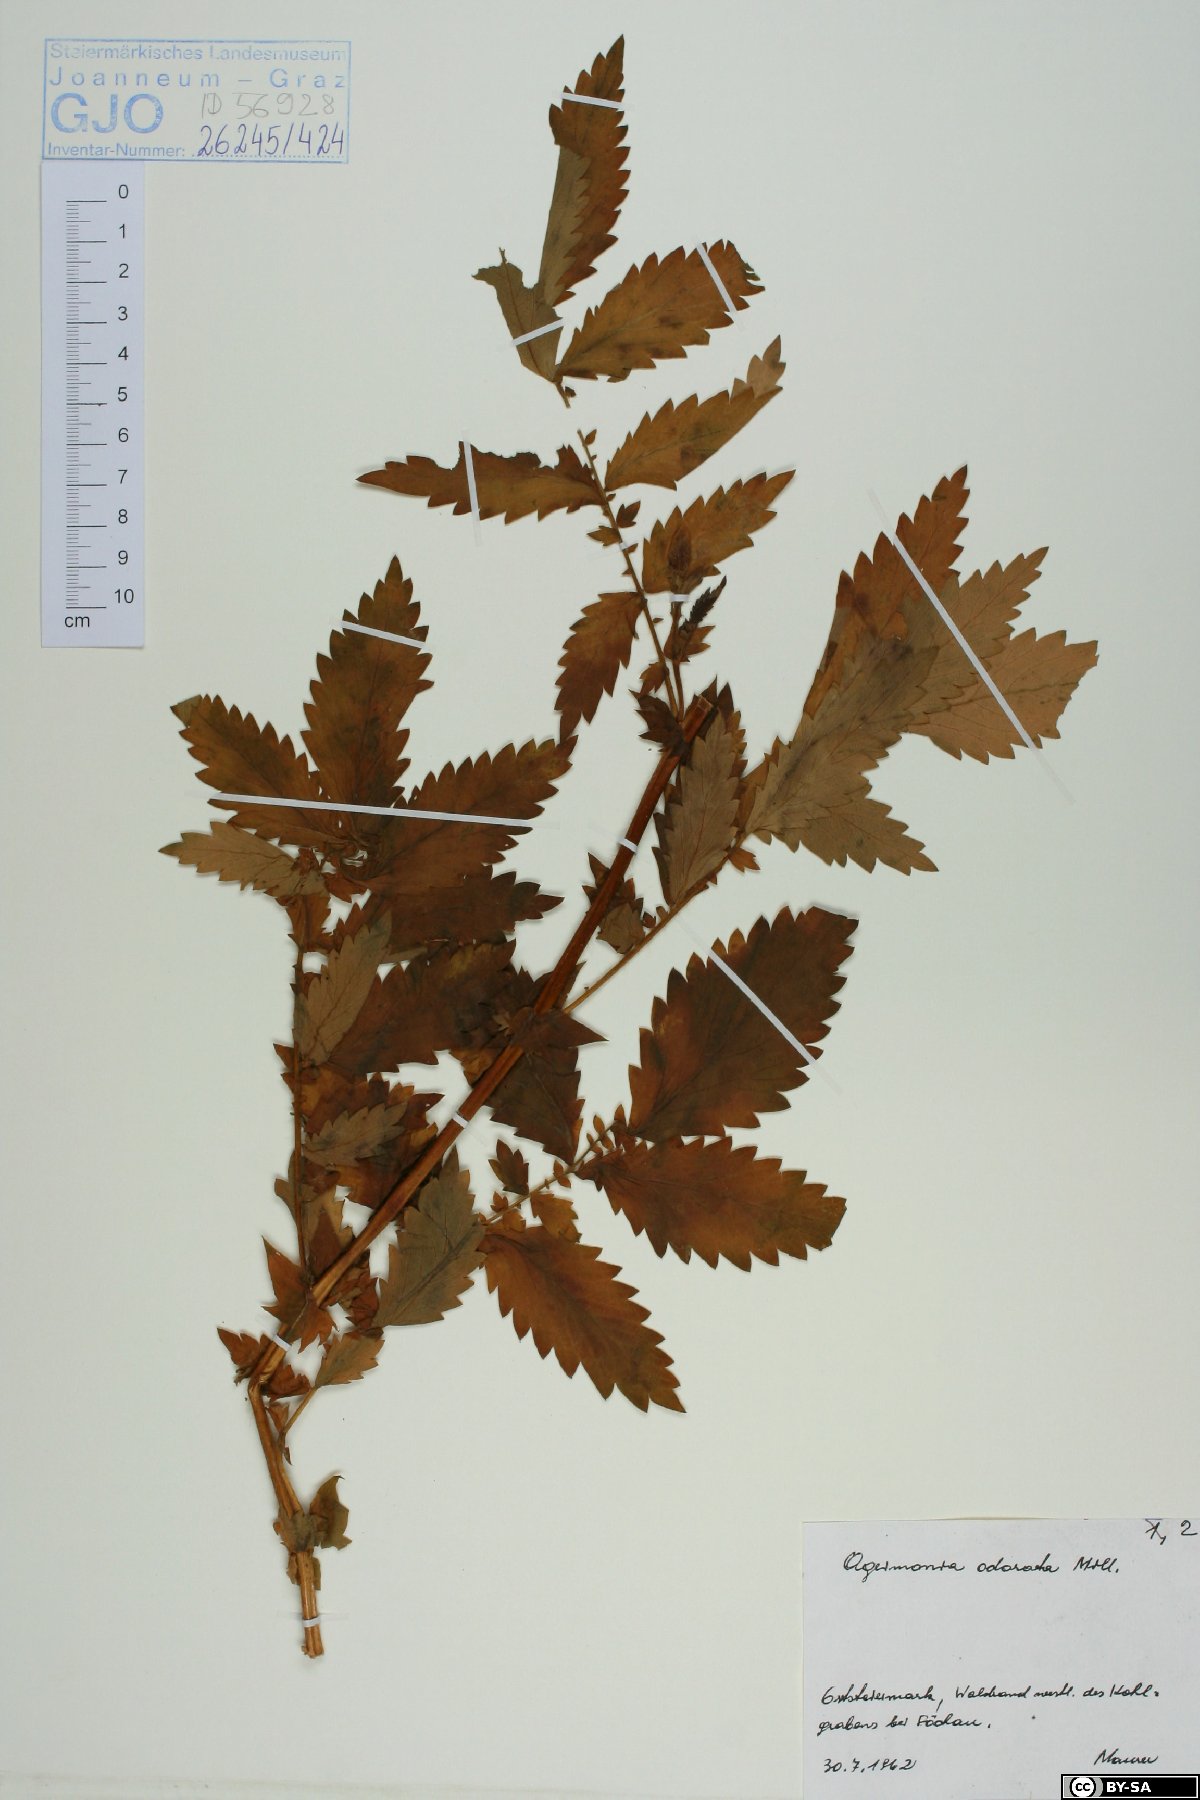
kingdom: Plantae
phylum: Tracheophyta
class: Magnoliopsida
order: Rosales
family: Rosaceae
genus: Agrimonia
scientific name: Agrimonia repens
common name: Creeping agrimony
